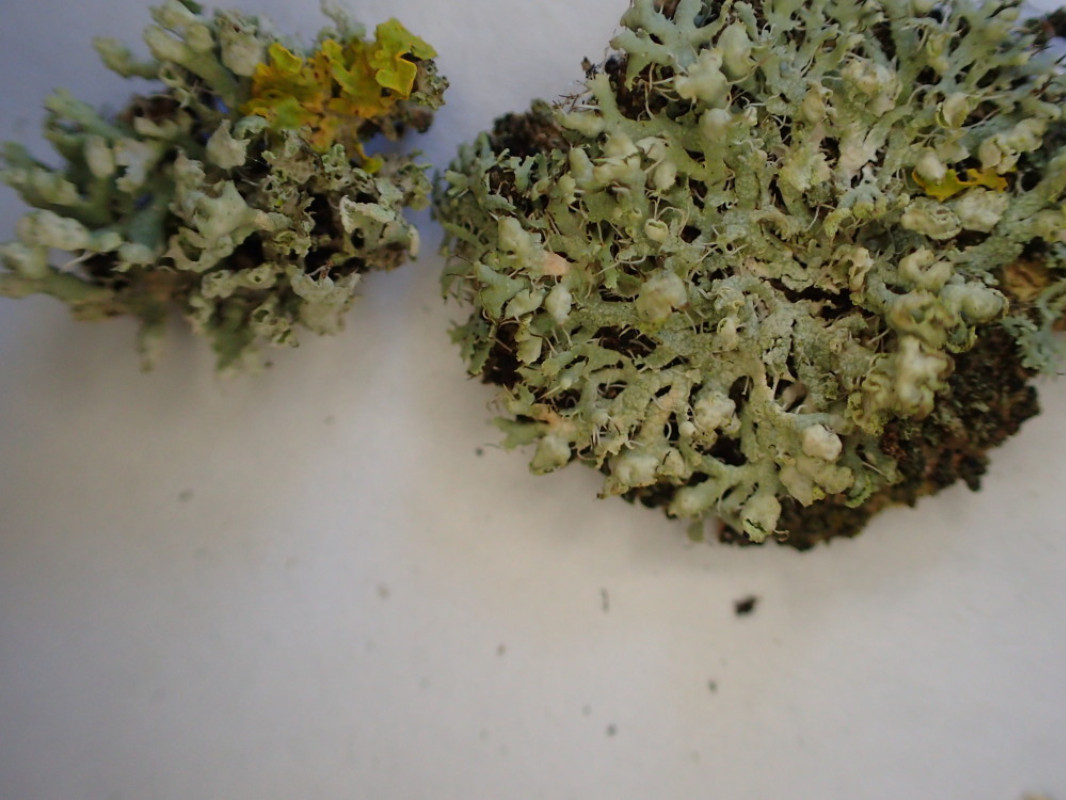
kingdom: Fungi
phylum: Ascomycota
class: Lecanoromycetes
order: Caliciales
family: Physciaceae
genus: Physcia
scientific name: Physcia adscendens
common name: hætte-rosetlav
